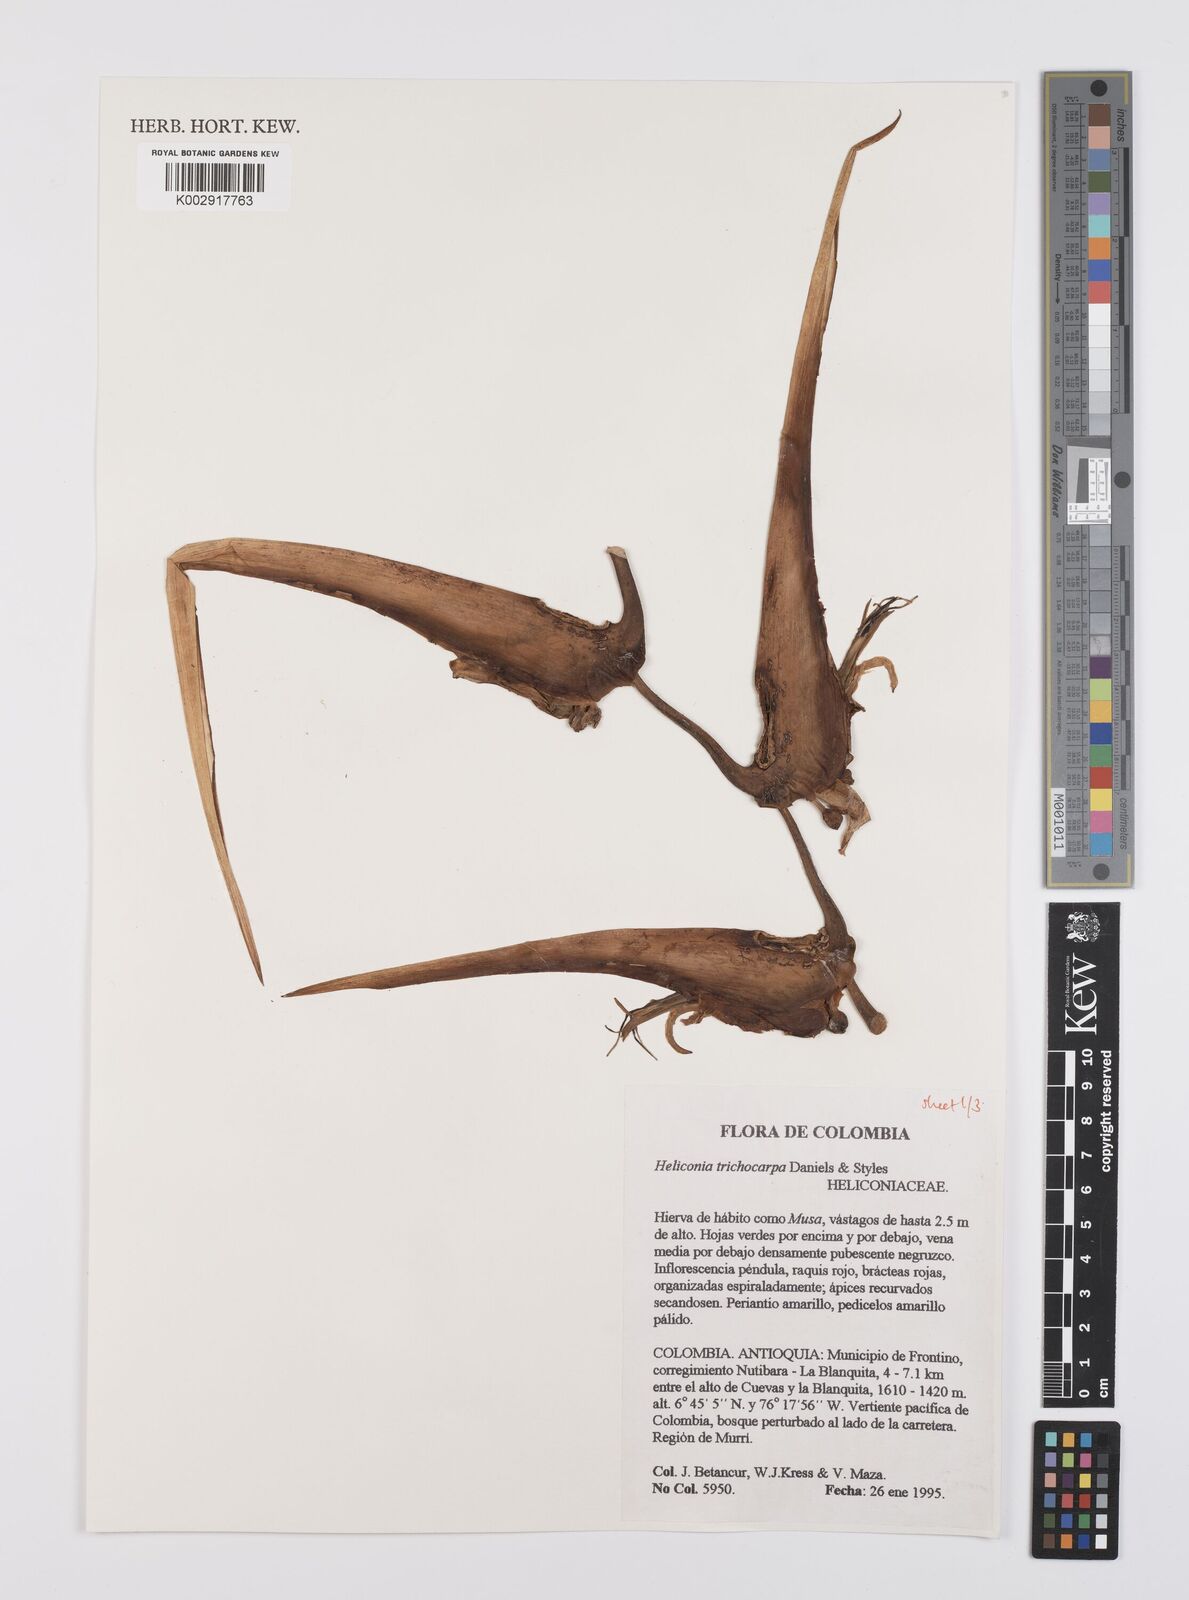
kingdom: Plantae
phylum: Tracheophyta
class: Liliopsida
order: Zingiberales
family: Heliconiaceae
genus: Heliconia
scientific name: Heliconia trichocarpa
